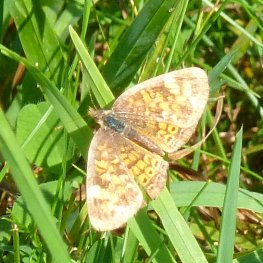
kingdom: Animalia
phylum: Arthropoda
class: Insecta
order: Lepidoptera
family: Nymphalidae
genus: Phyciodes
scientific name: Phyciodes tharos
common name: Northern Crescent
